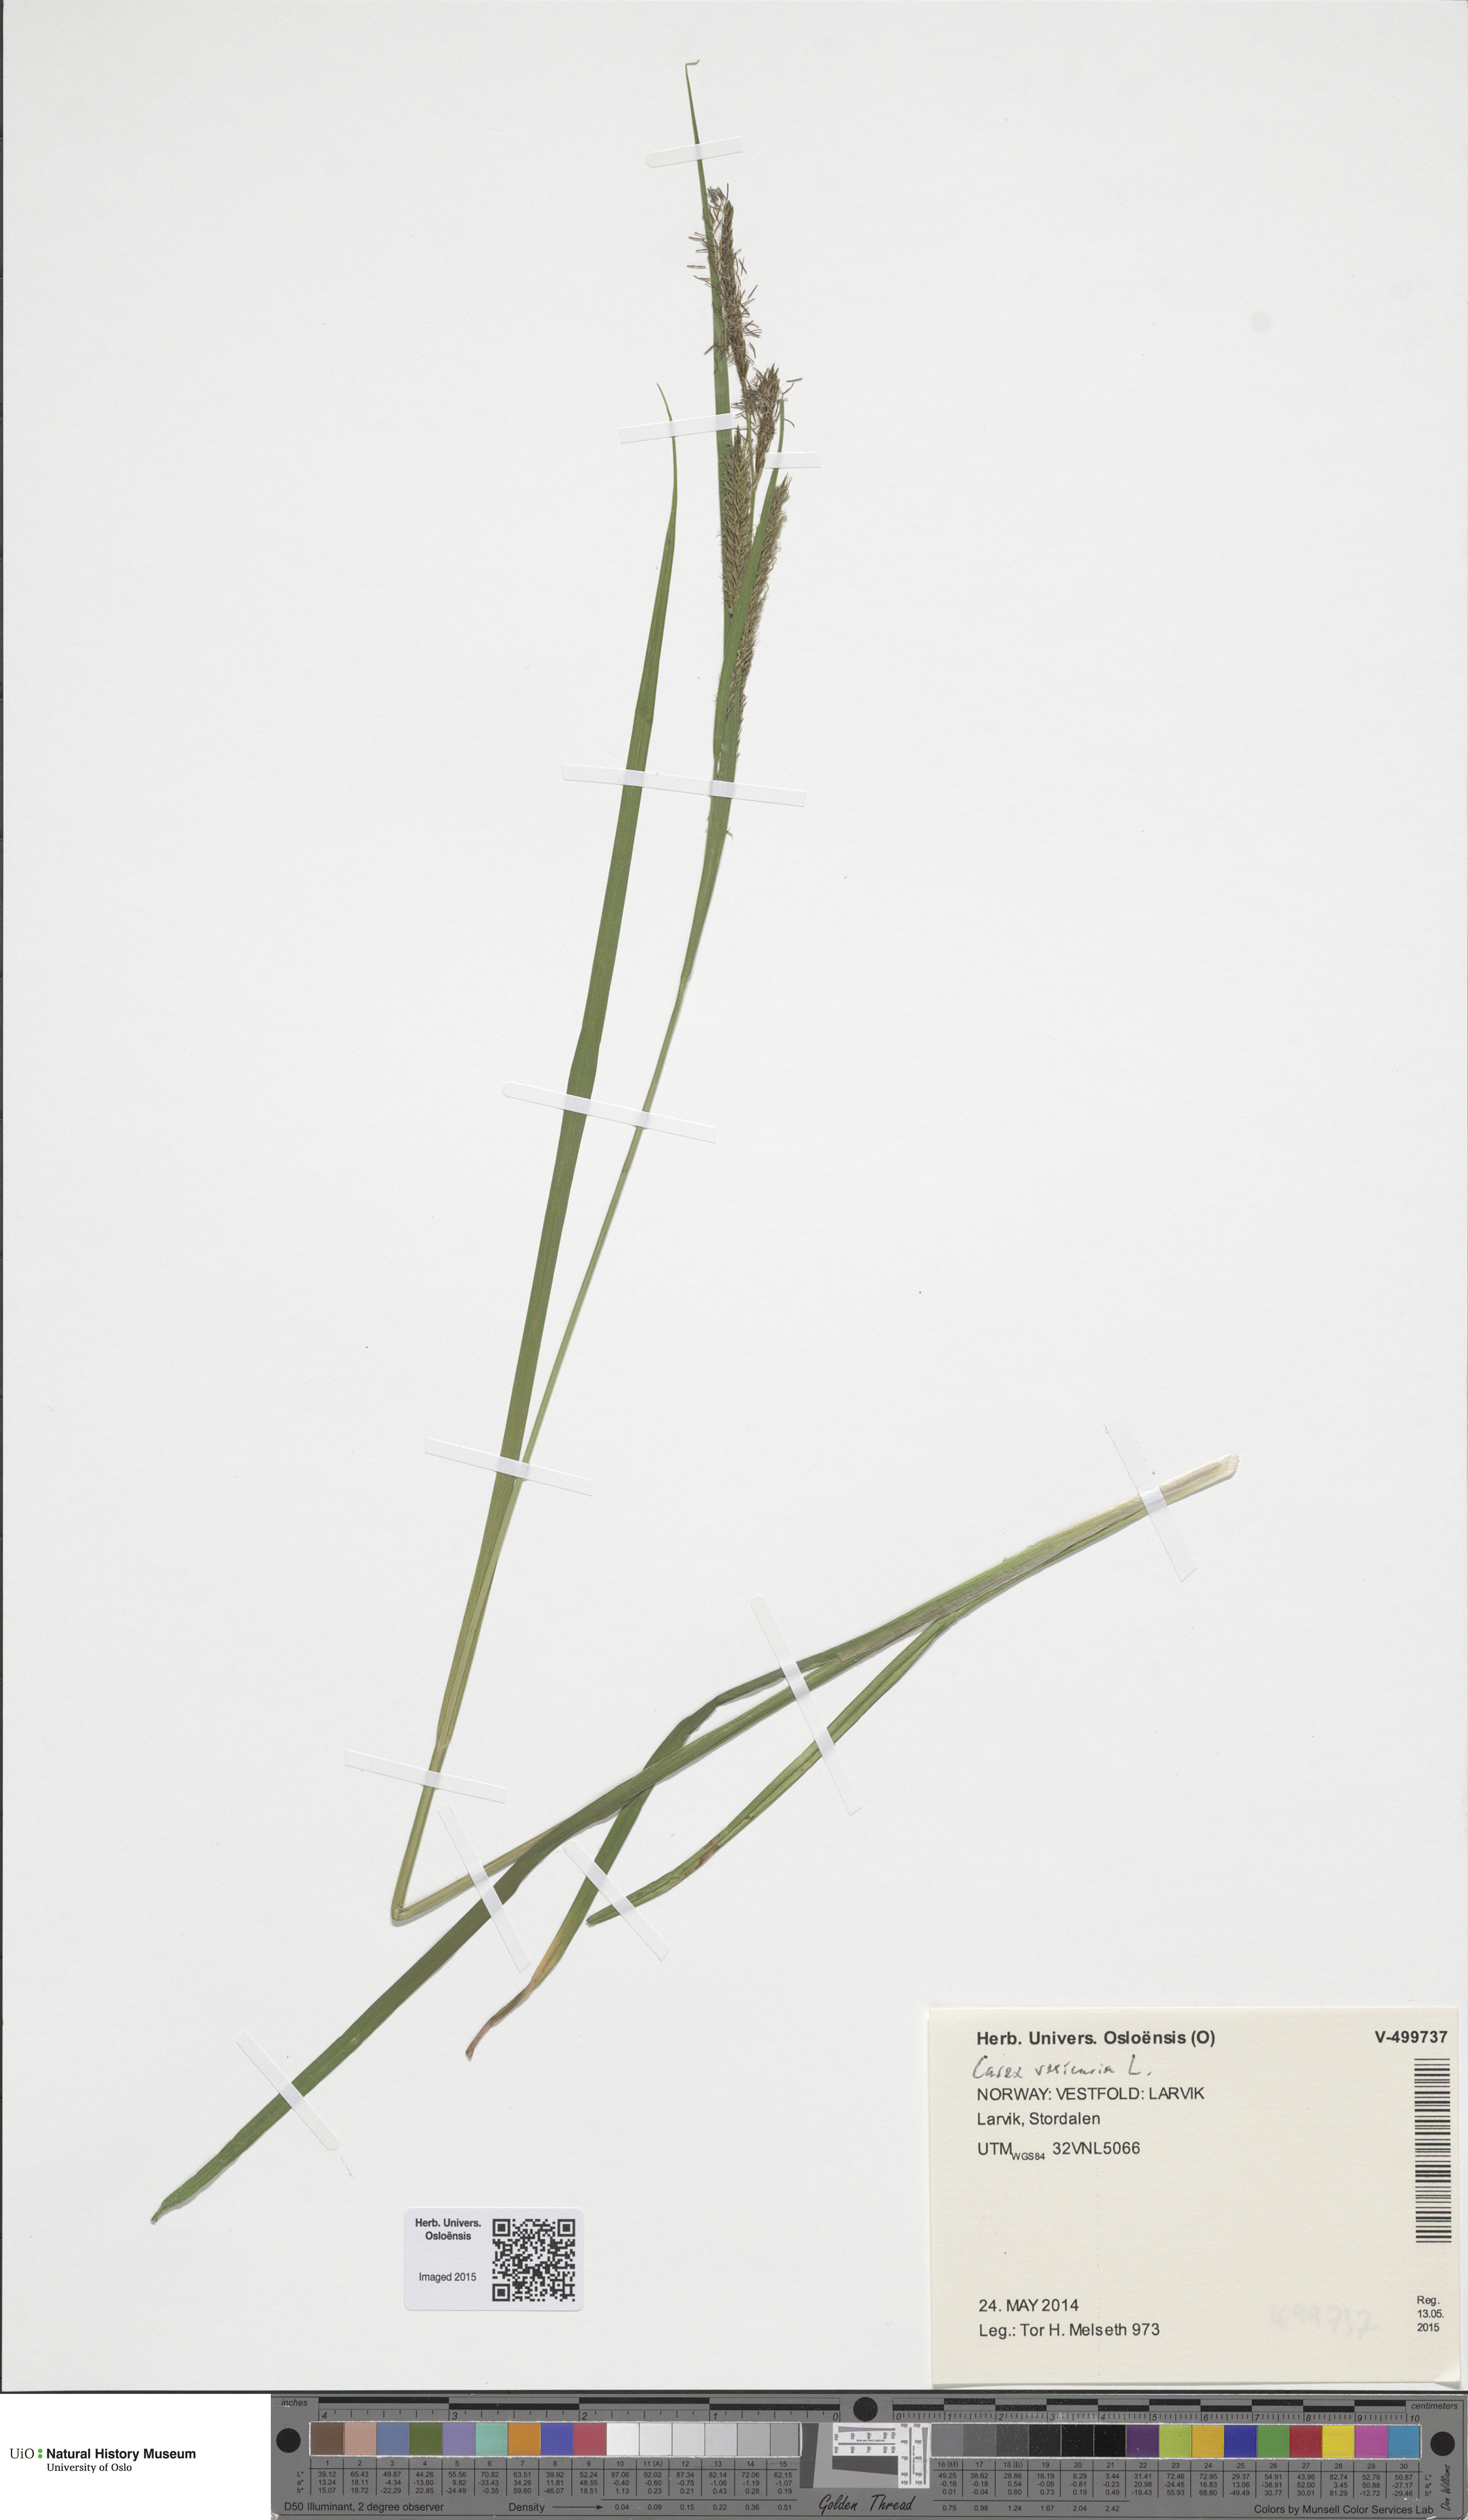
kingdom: Plantae
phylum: Tracheophyta
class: Liliopsida
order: Poales
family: Cyperaceae
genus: Carex
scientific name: Carex vesicaria
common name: Bladder-sedge
